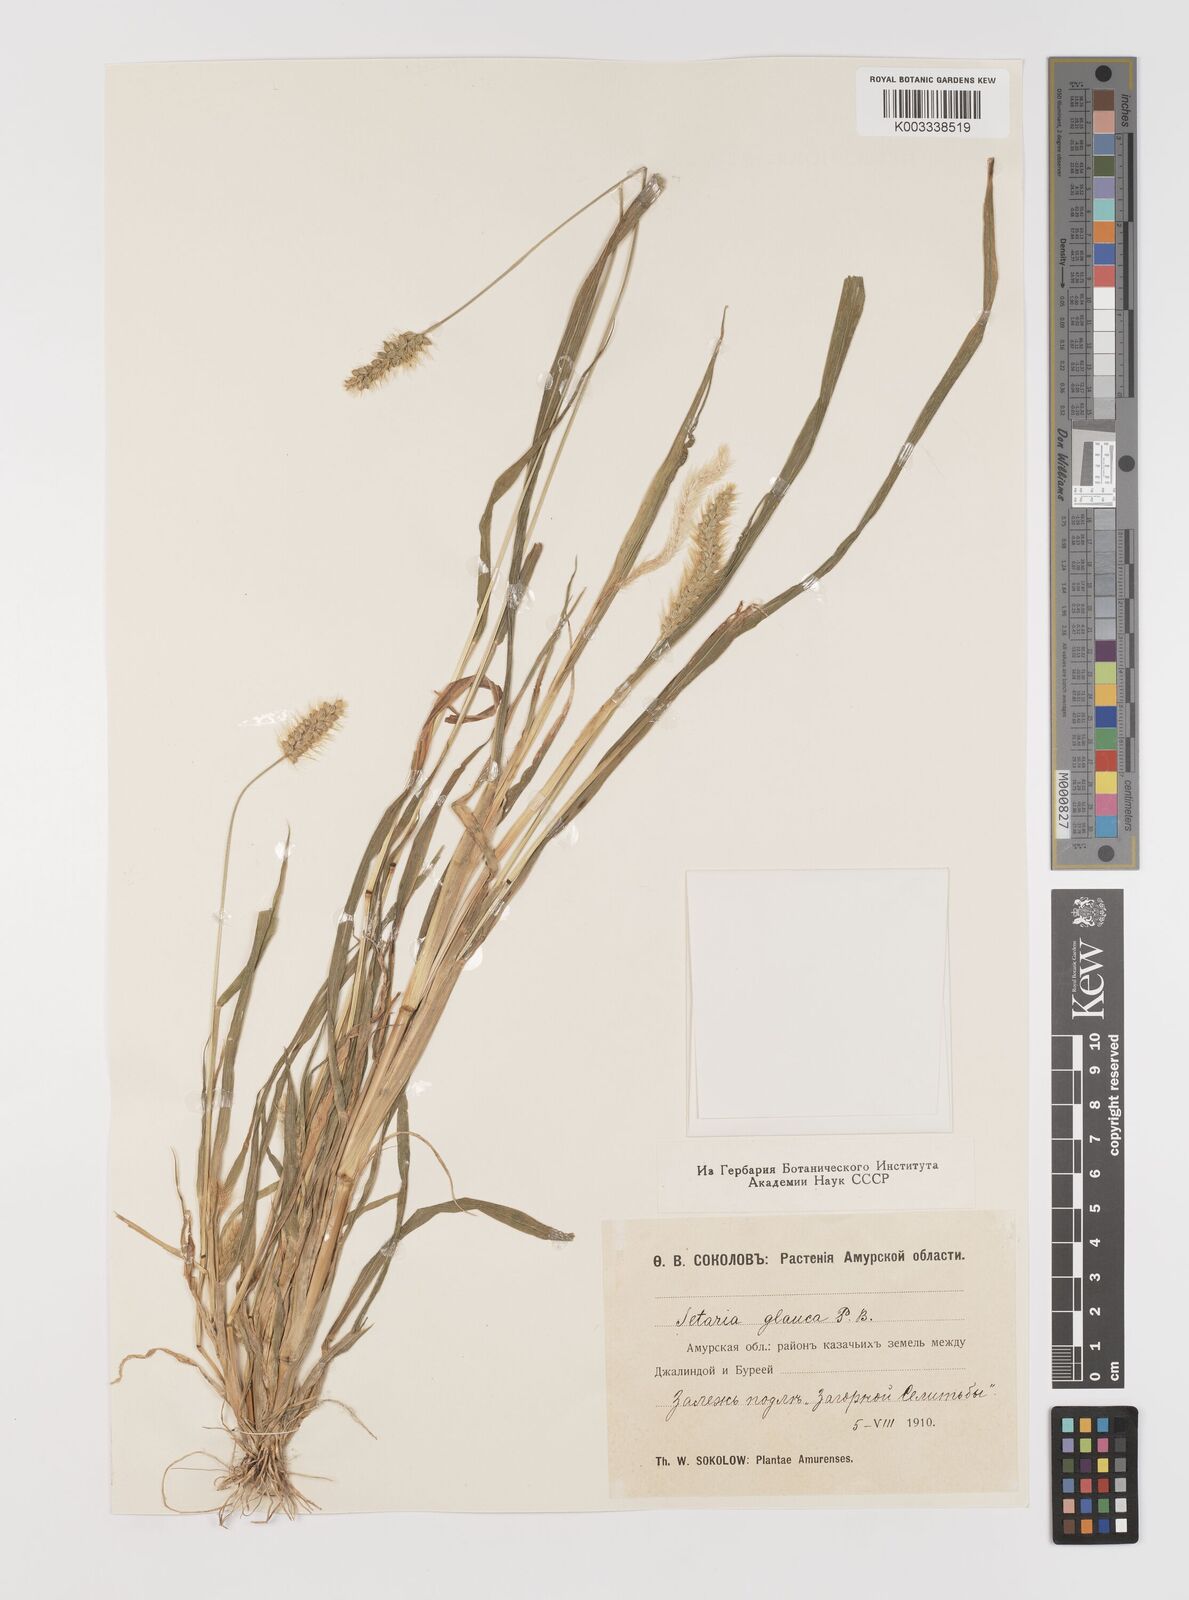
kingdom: Plantae
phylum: Tracheophyta
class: Liliopsida
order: Poales
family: Poaceae
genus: Cenchrus
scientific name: Cenchrus americanus
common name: Pearl millet
